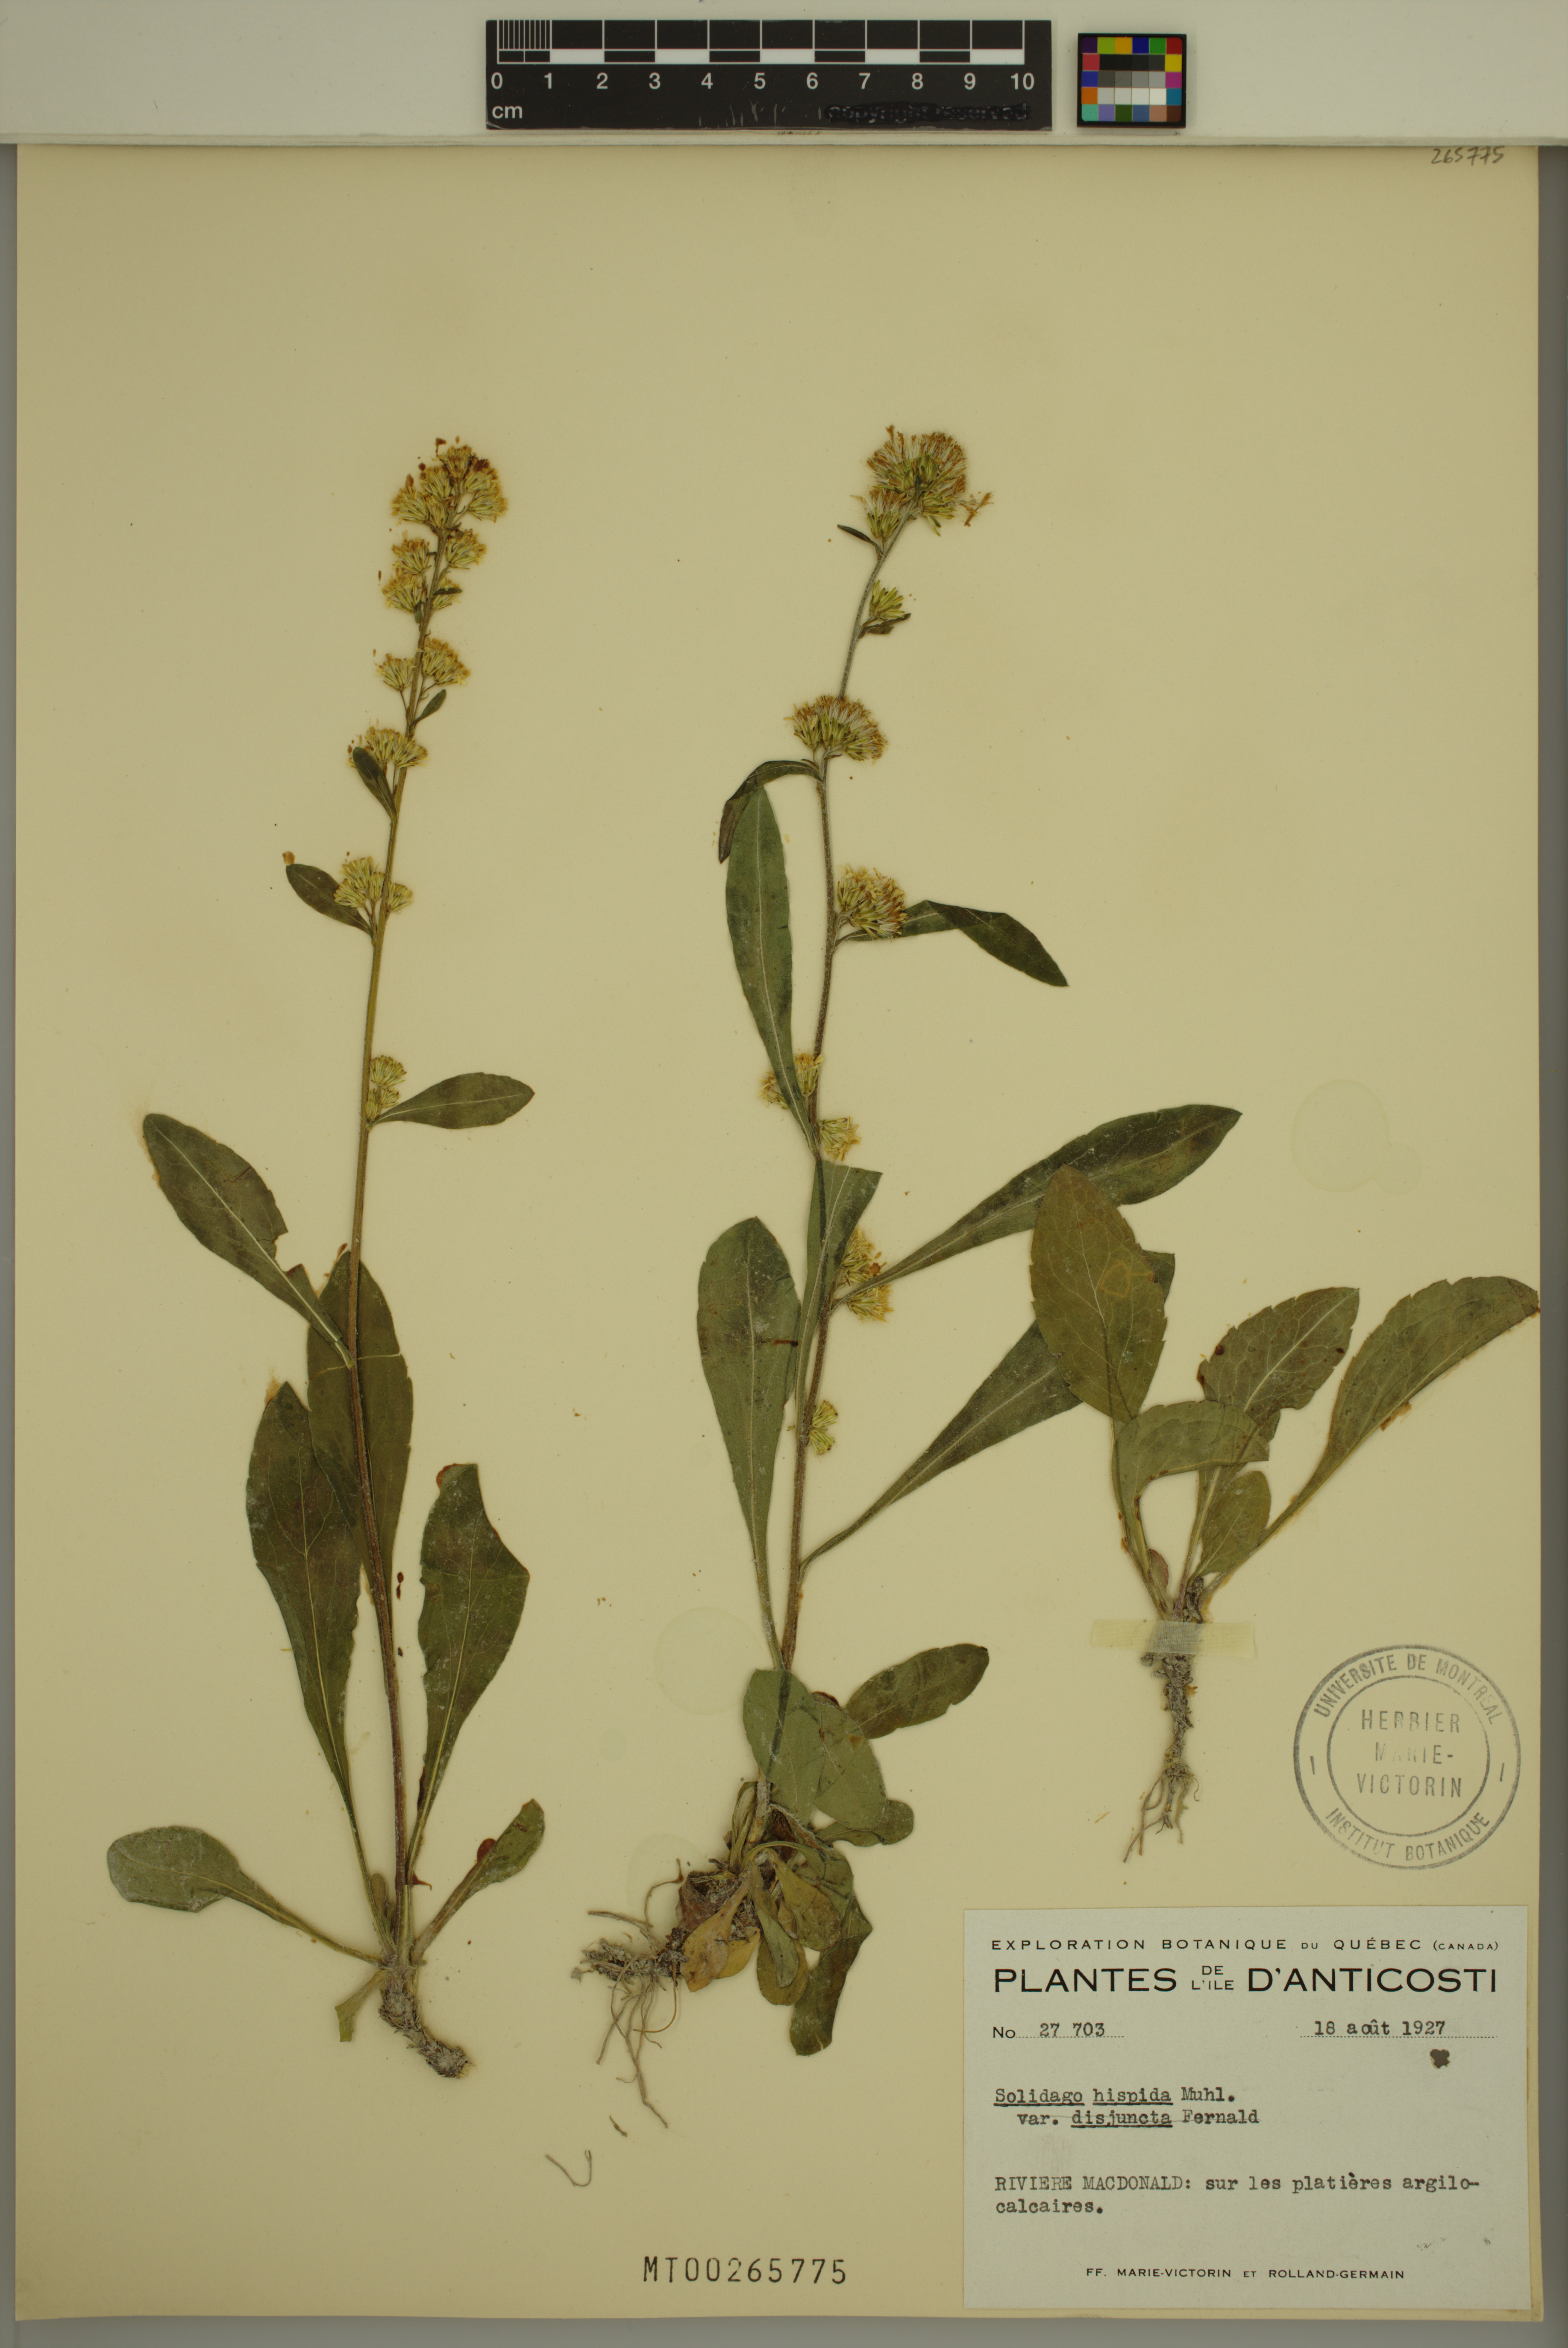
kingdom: Plantae
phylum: Tracheophyta
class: Magnoliopsida
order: Asterales
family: Asteraceae
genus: Solidago
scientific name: Solidago hispida
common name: Hairy goldenrod
